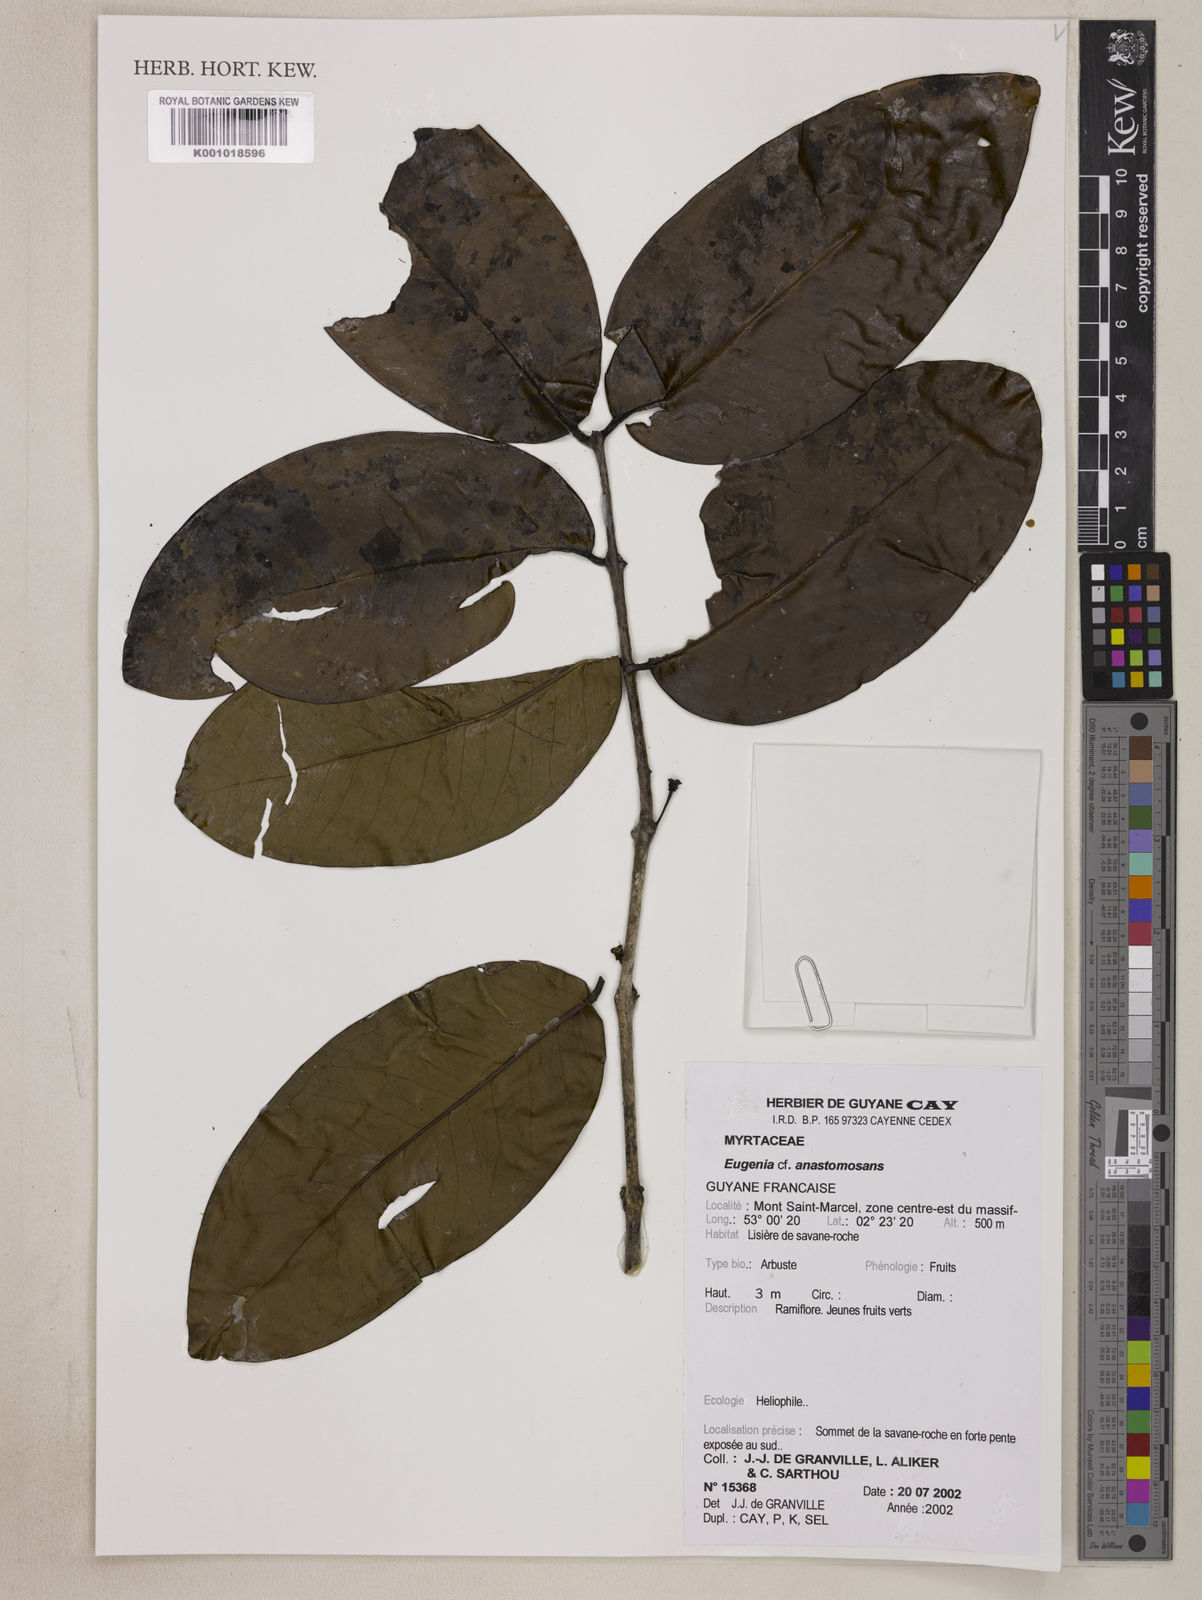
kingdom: Plantae
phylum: Tracheophyta
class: Magnoliopsida
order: Myrtales
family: Myrtaceae
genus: Eugenia
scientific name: Eugenia anastomosans
